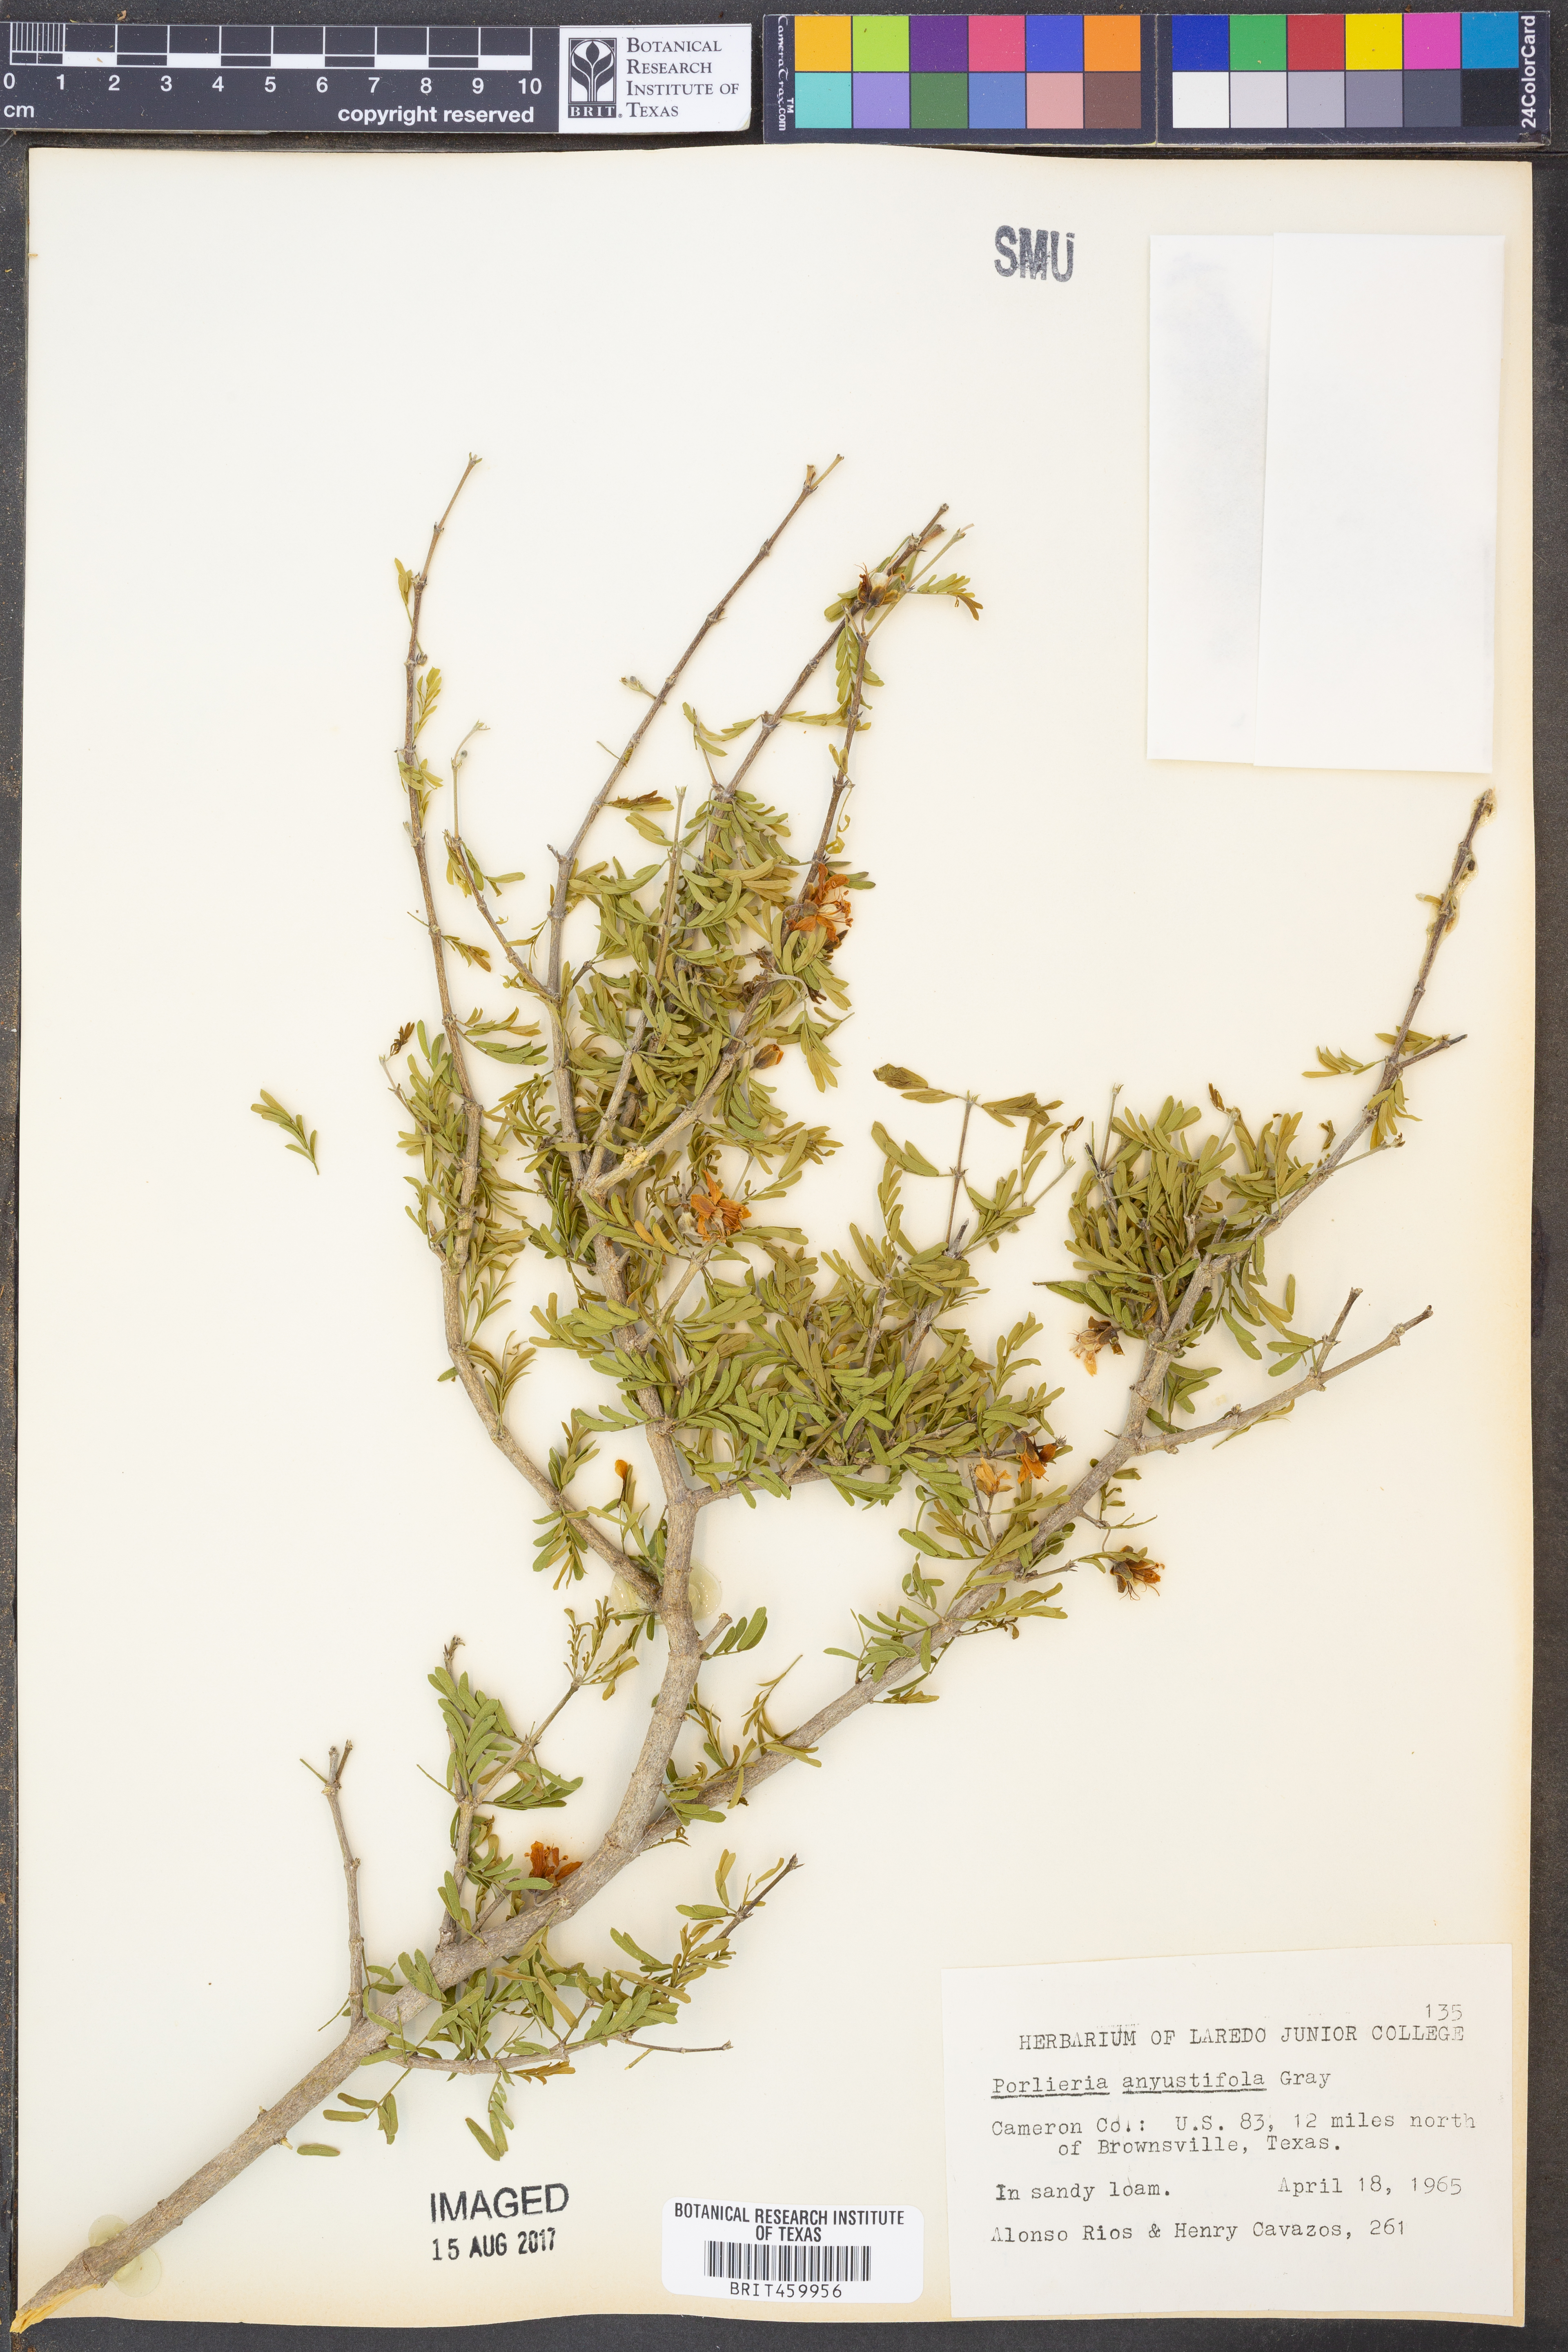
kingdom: Plantae
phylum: Tracheophyta
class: Magnoliopsida
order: Zygophyllales
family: Zygophyllaceae
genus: Porlieria
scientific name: Porlieria angustifolia
